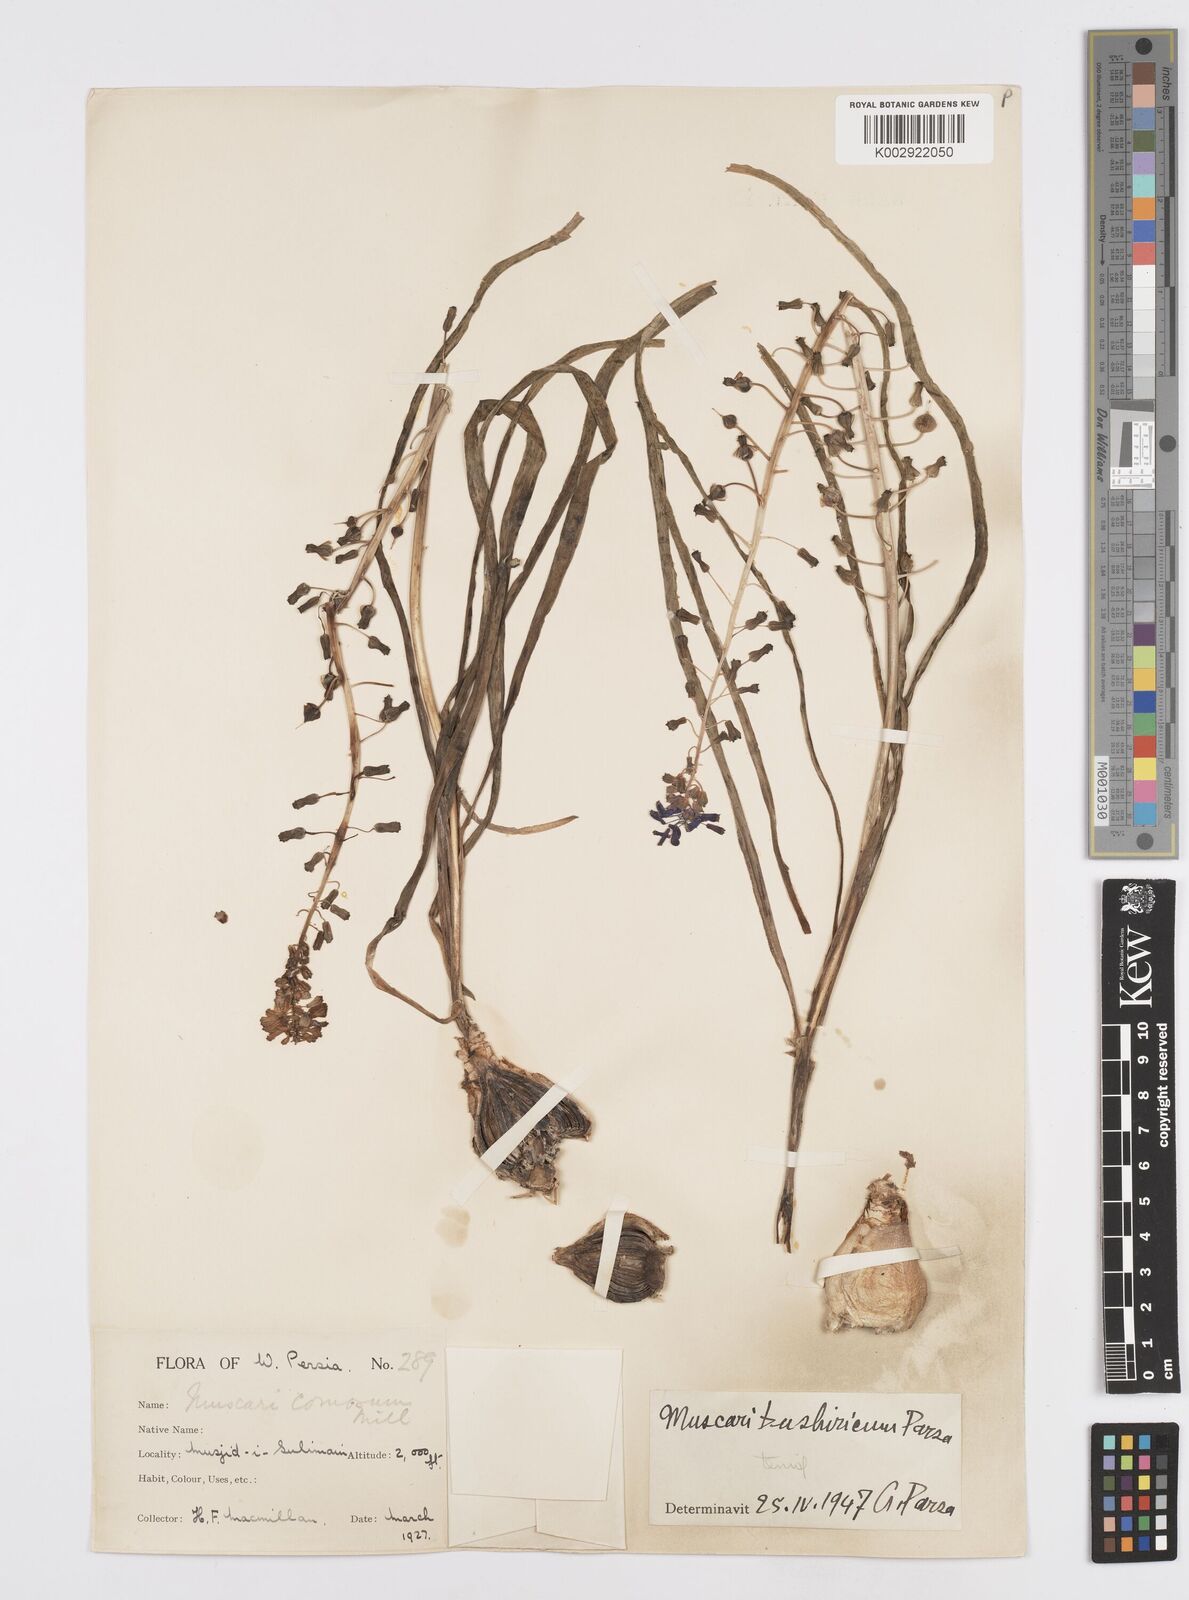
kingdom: Animalia
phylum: Mollusca
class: Cephalopoda
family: Neocomitidae
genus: Leopoldia
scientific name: Leopoldia
